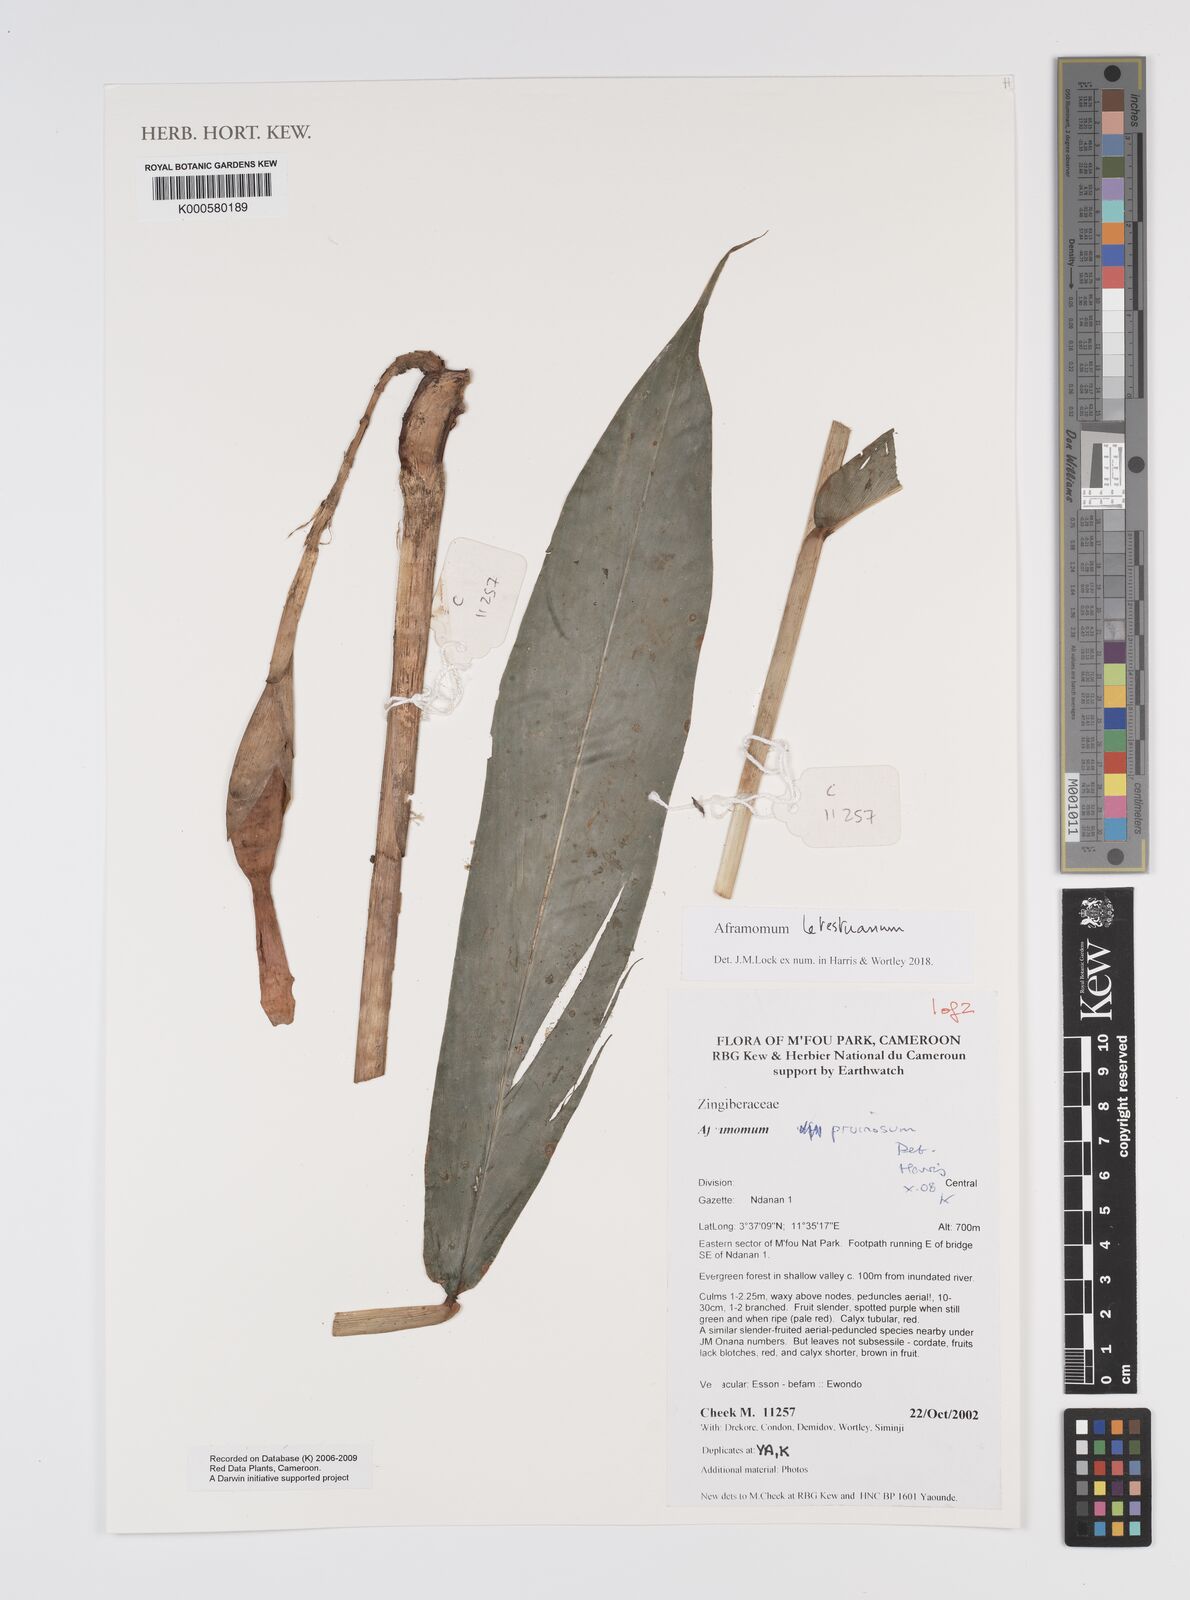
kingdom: Plantae
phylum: Tracheophyta
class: Liliopsida
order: Zingiberales
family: Zingiberaceae
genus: Aframomum
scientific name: Aframomum letestuanum
